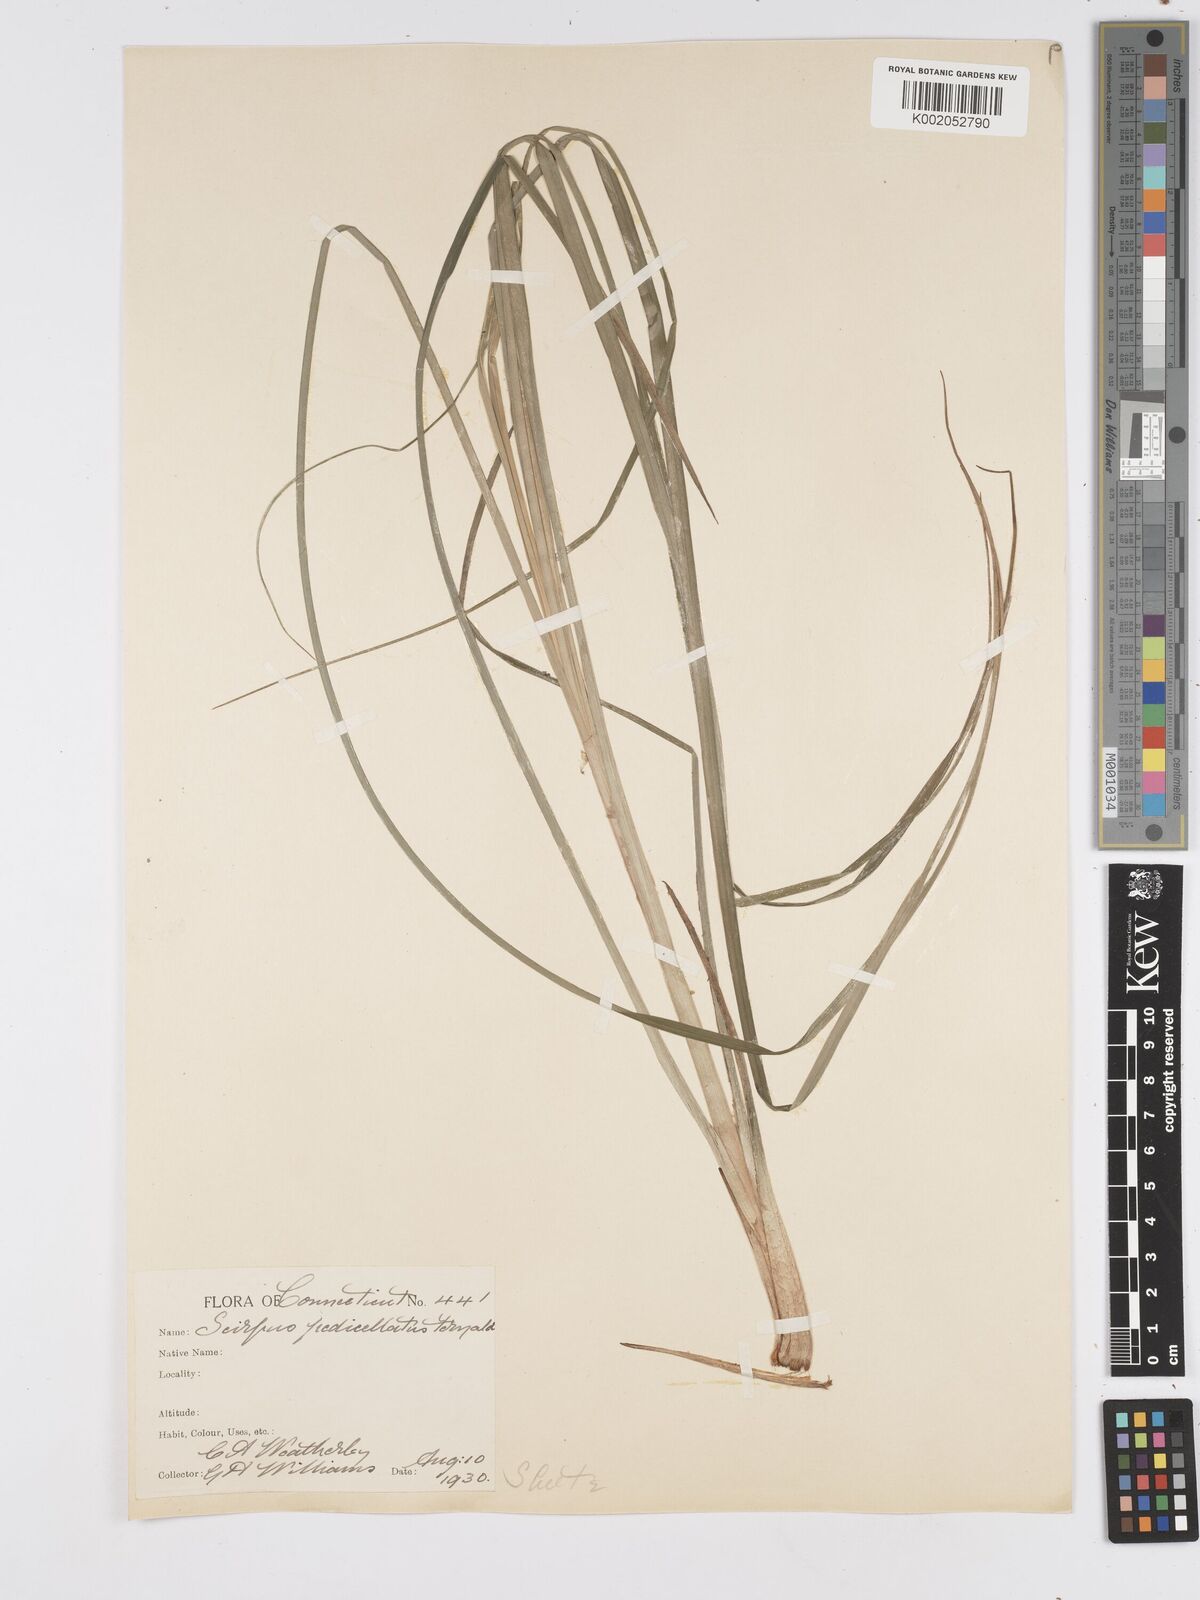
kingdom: Plantae
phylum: Tracheophyta
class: Liliopsida
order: Poales
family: Cyperaceae
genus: Scirpus
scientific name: Scirpus cyperinus
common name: Black-sheathed bulrush
